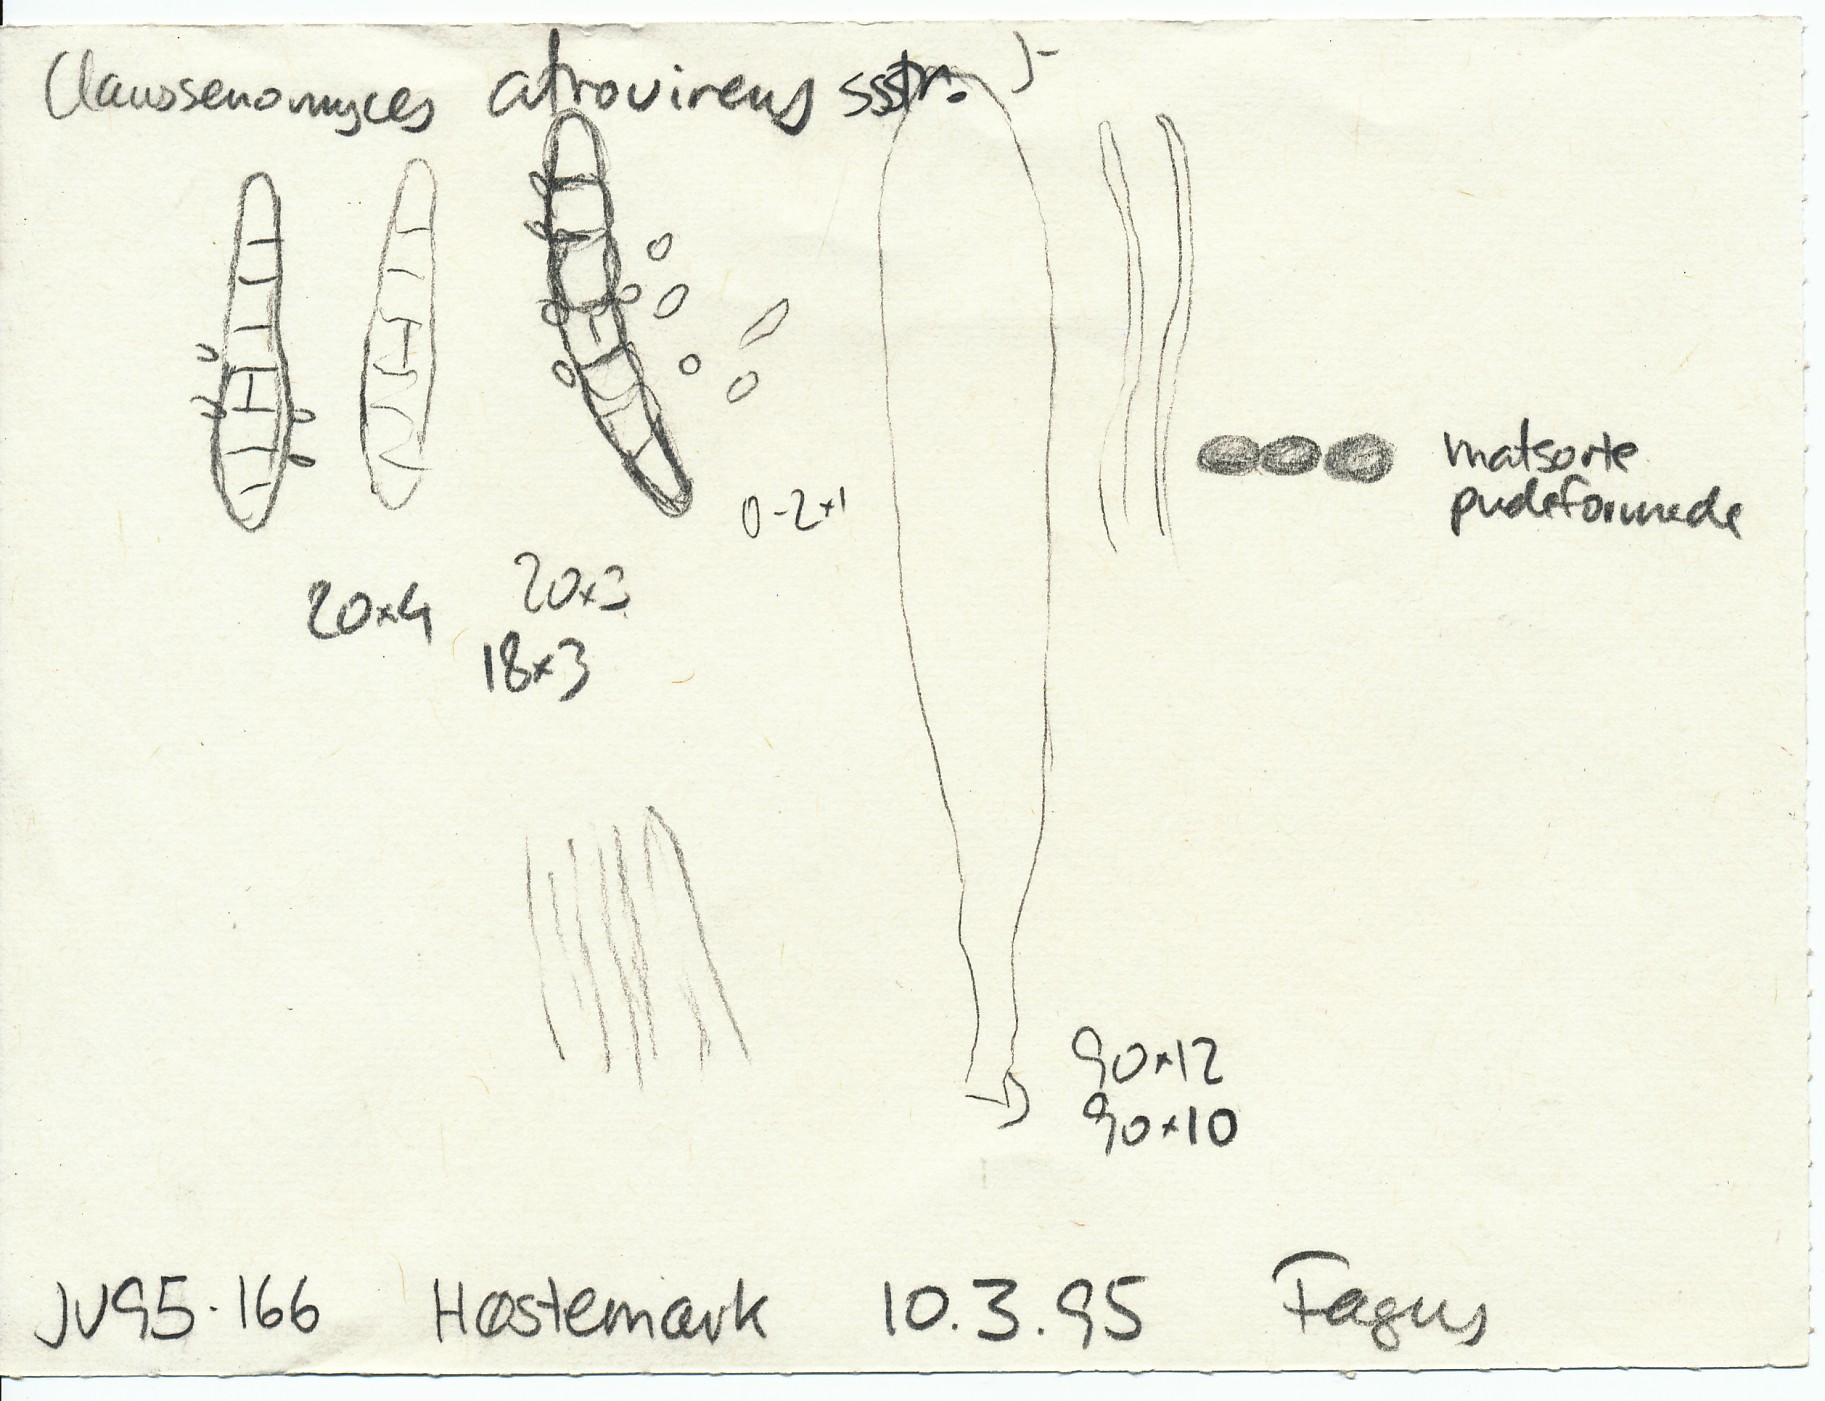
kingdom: Fungi
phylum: Ascomycota
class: Leotiomycetes
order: Leotiales
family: Tympanidaceae
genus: Vexillomyces
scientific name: Vexillomyces atrovirens
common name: sortgrøn linseskive
